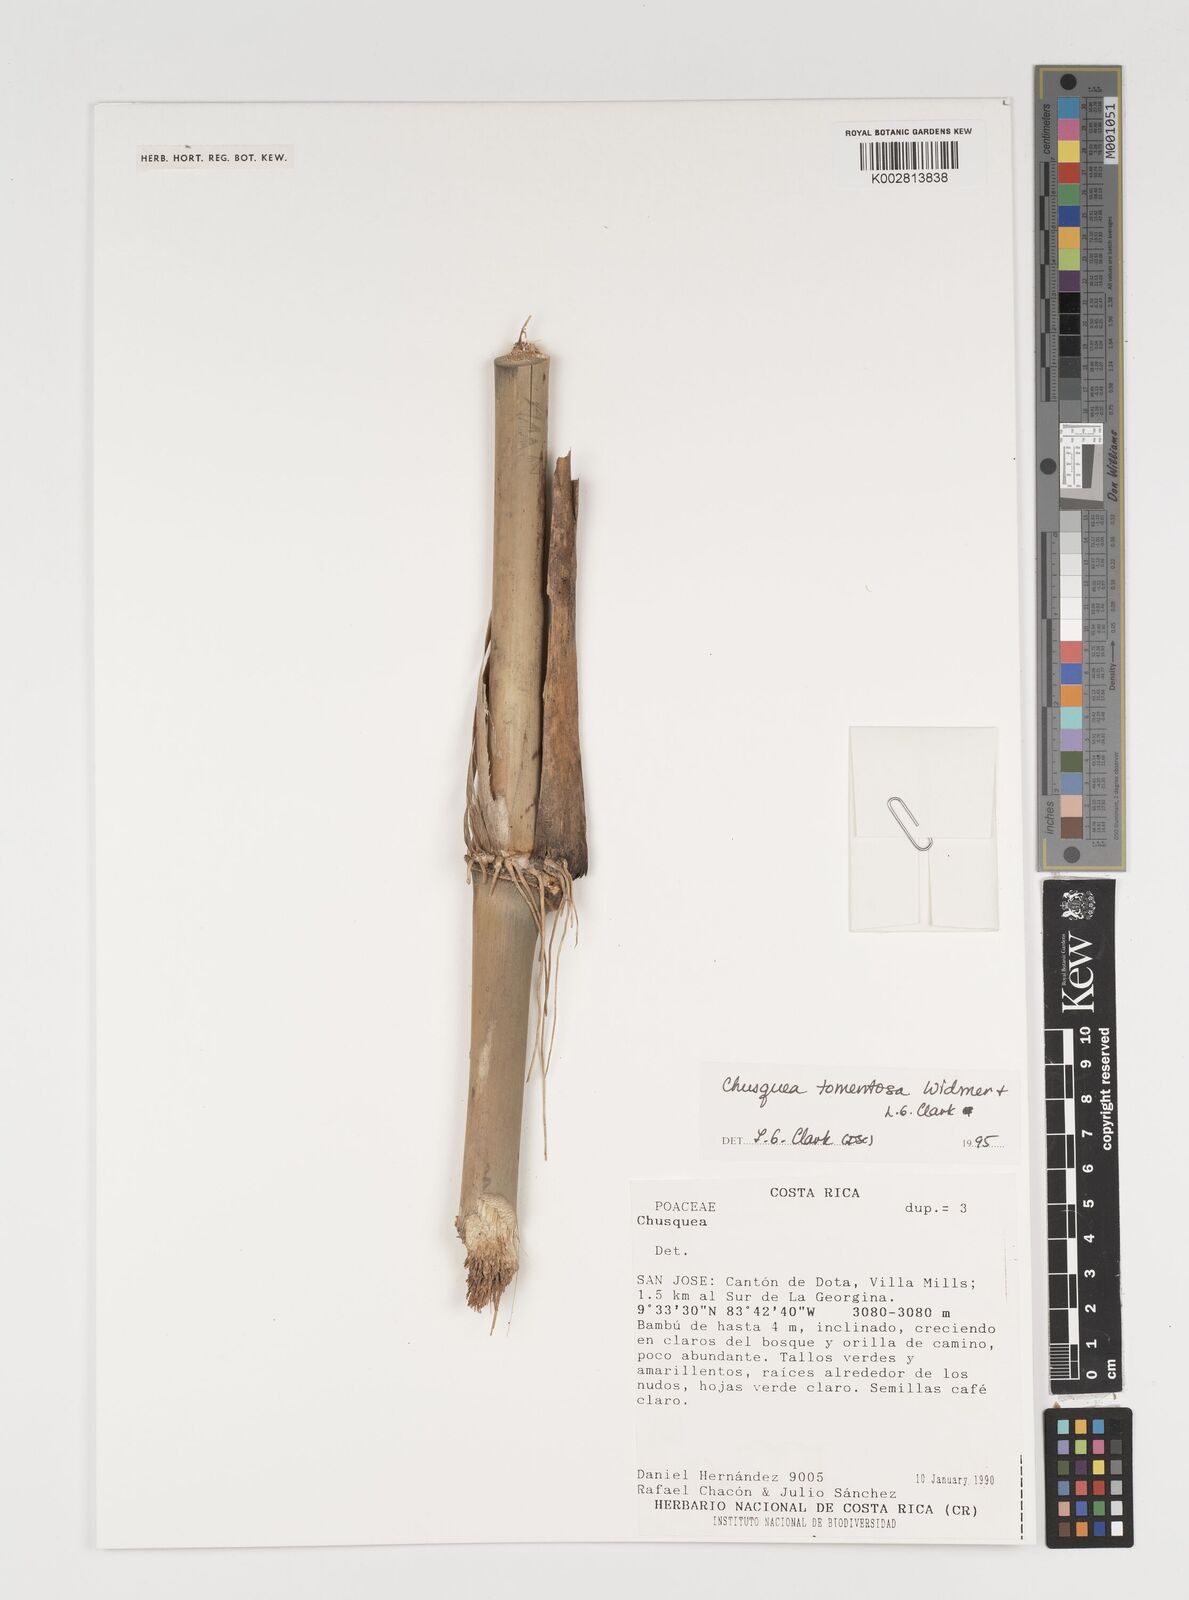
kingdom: Plantae
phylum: Tracheophyta
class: Liliopsida
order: Poales
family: Poaceae
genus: Chusquea
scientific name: Chusquea tomentosa
